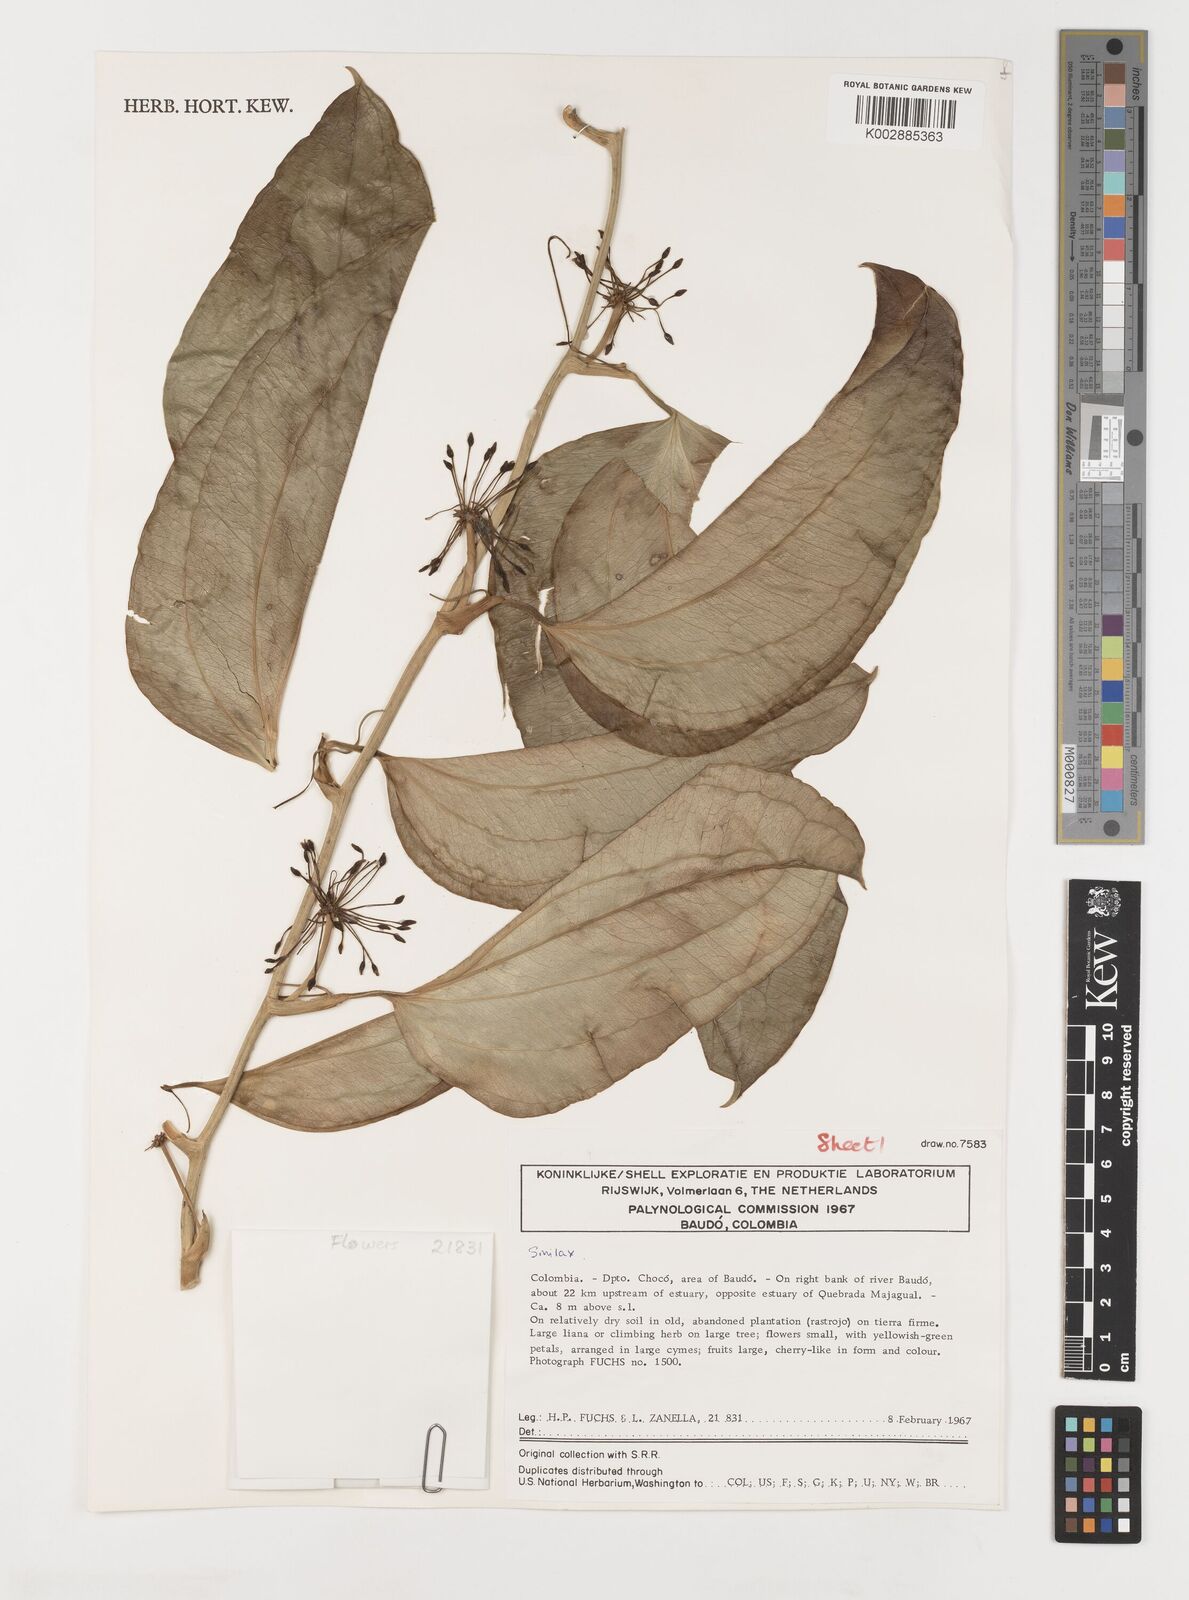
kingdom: Plantae
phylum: Tracheophyta
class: Liliopsida
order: Liliales
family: Smilacaceae
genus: Smilax
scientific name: Smilax
